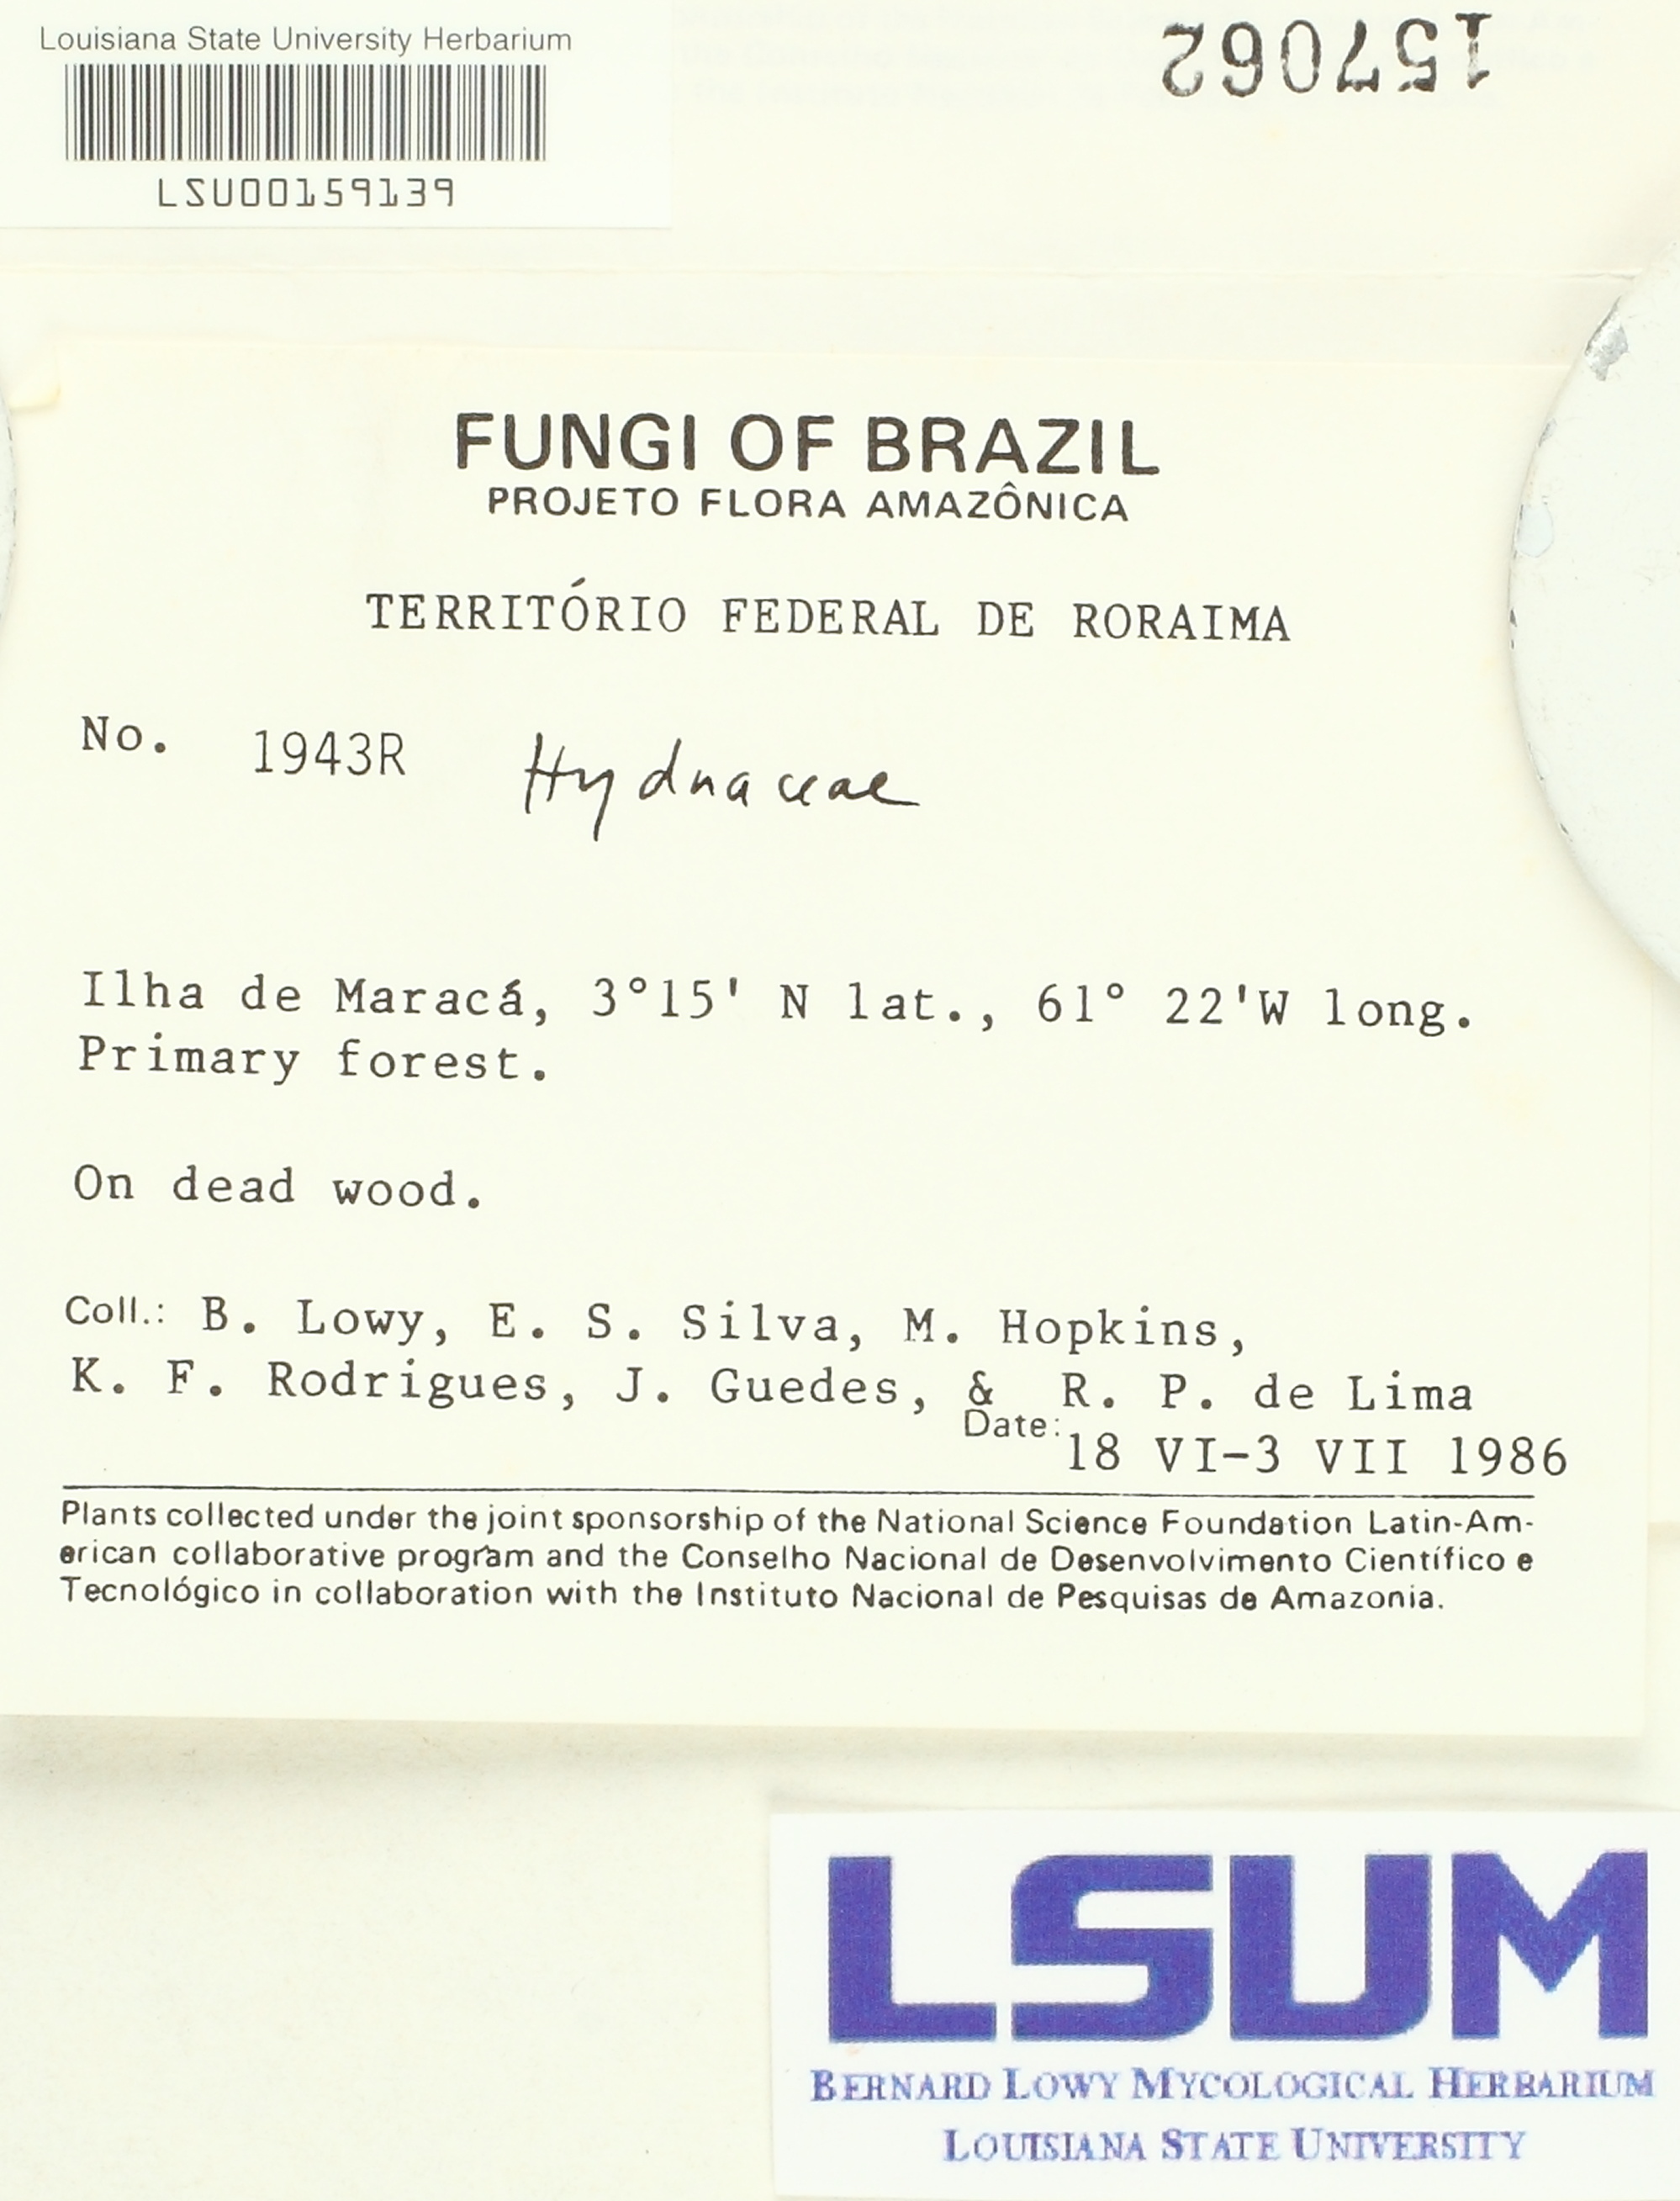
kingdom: Fungi
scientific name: Fungi
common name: Fungi
